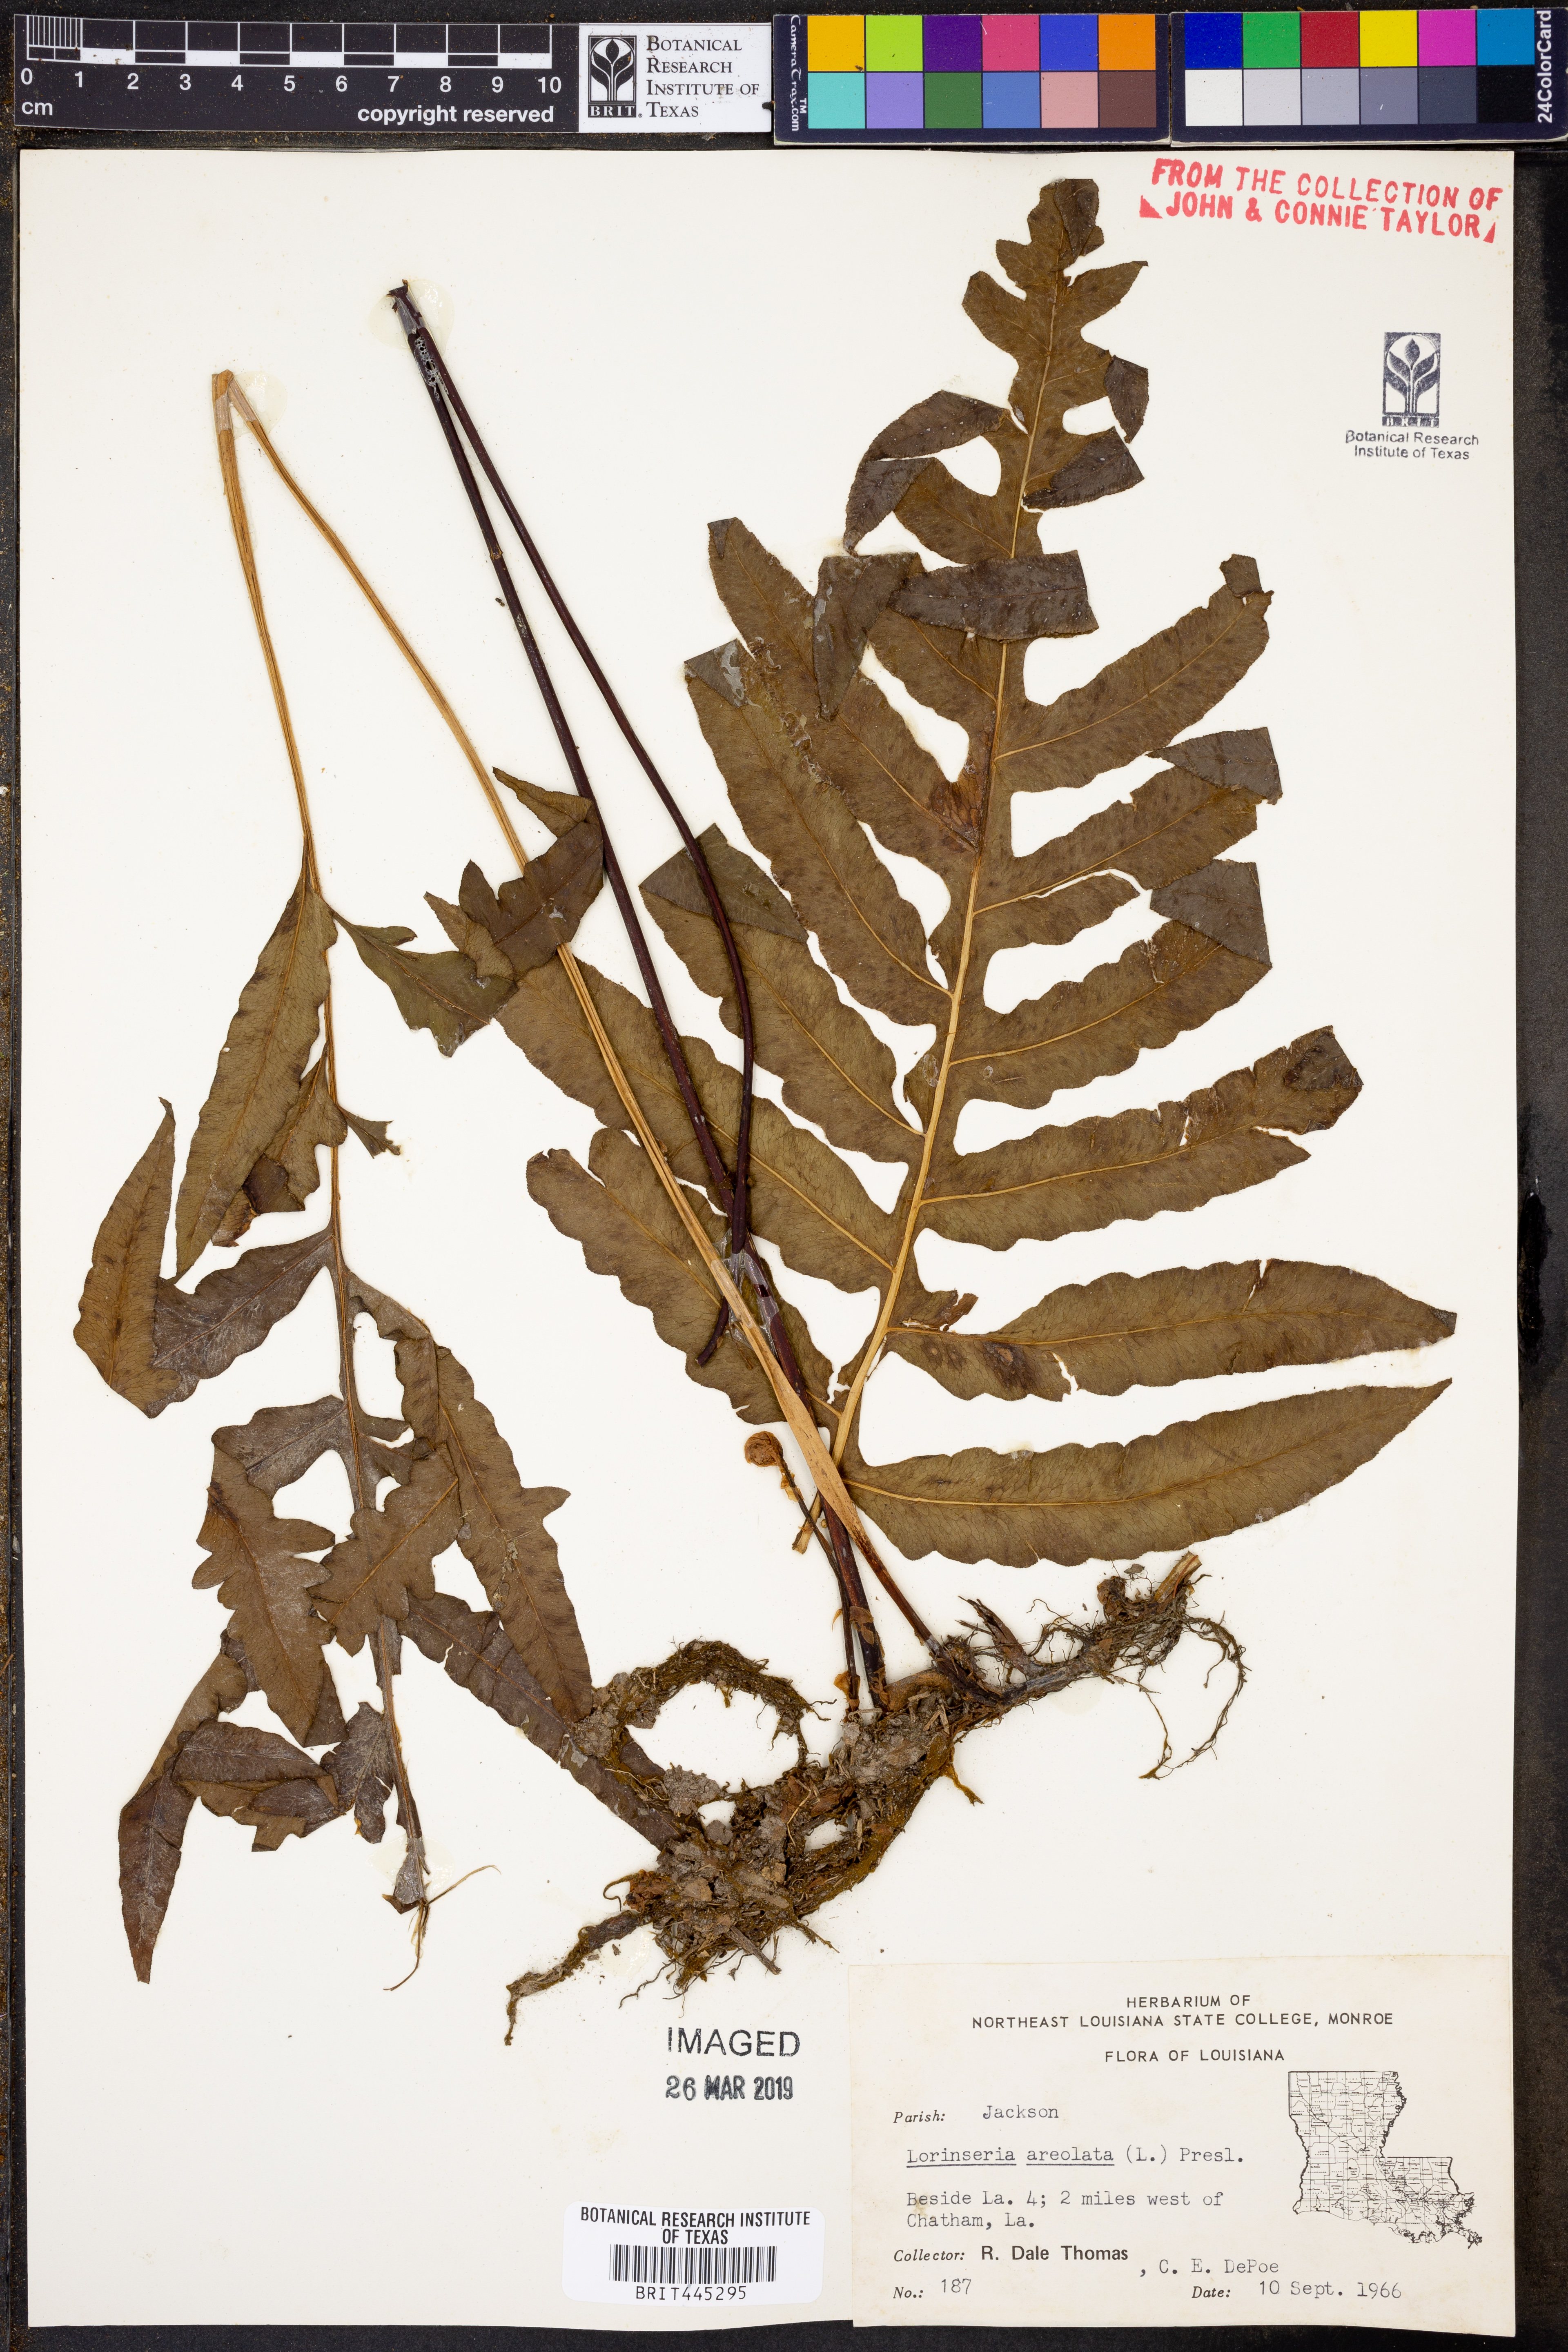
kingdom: Plantae
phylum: Tracheophyta
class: Polypodiopsida
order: Polypodiales
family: Blechnaceae
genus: Lorinseria
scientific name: Lorinseria areolata
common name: Dwarf chain fern
